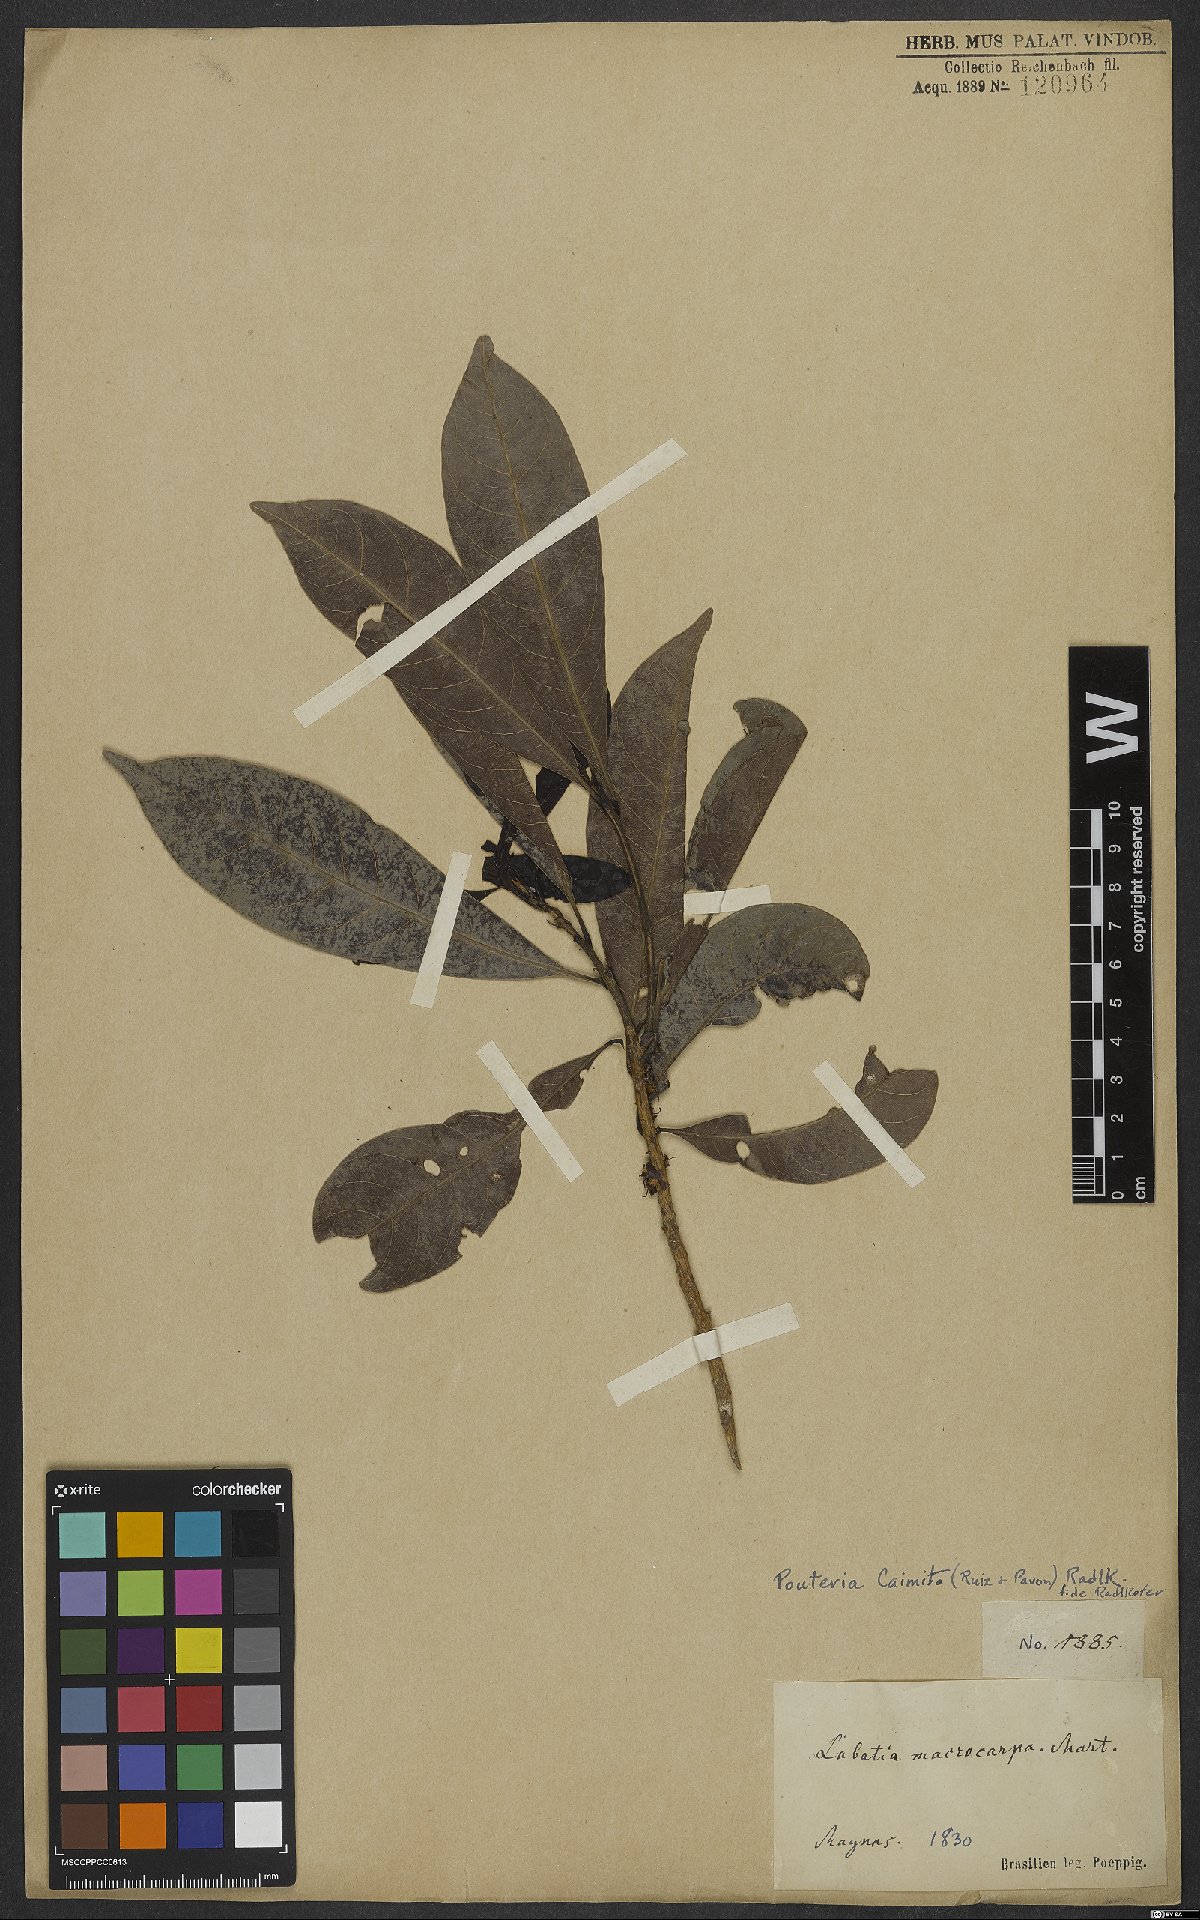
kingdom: Plantae
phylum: Tracheophyta
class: Magnoliopsida
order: Ericales
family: Sapotaceae
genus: Pouteria
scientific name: Pouteria caimito
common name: Caimito
